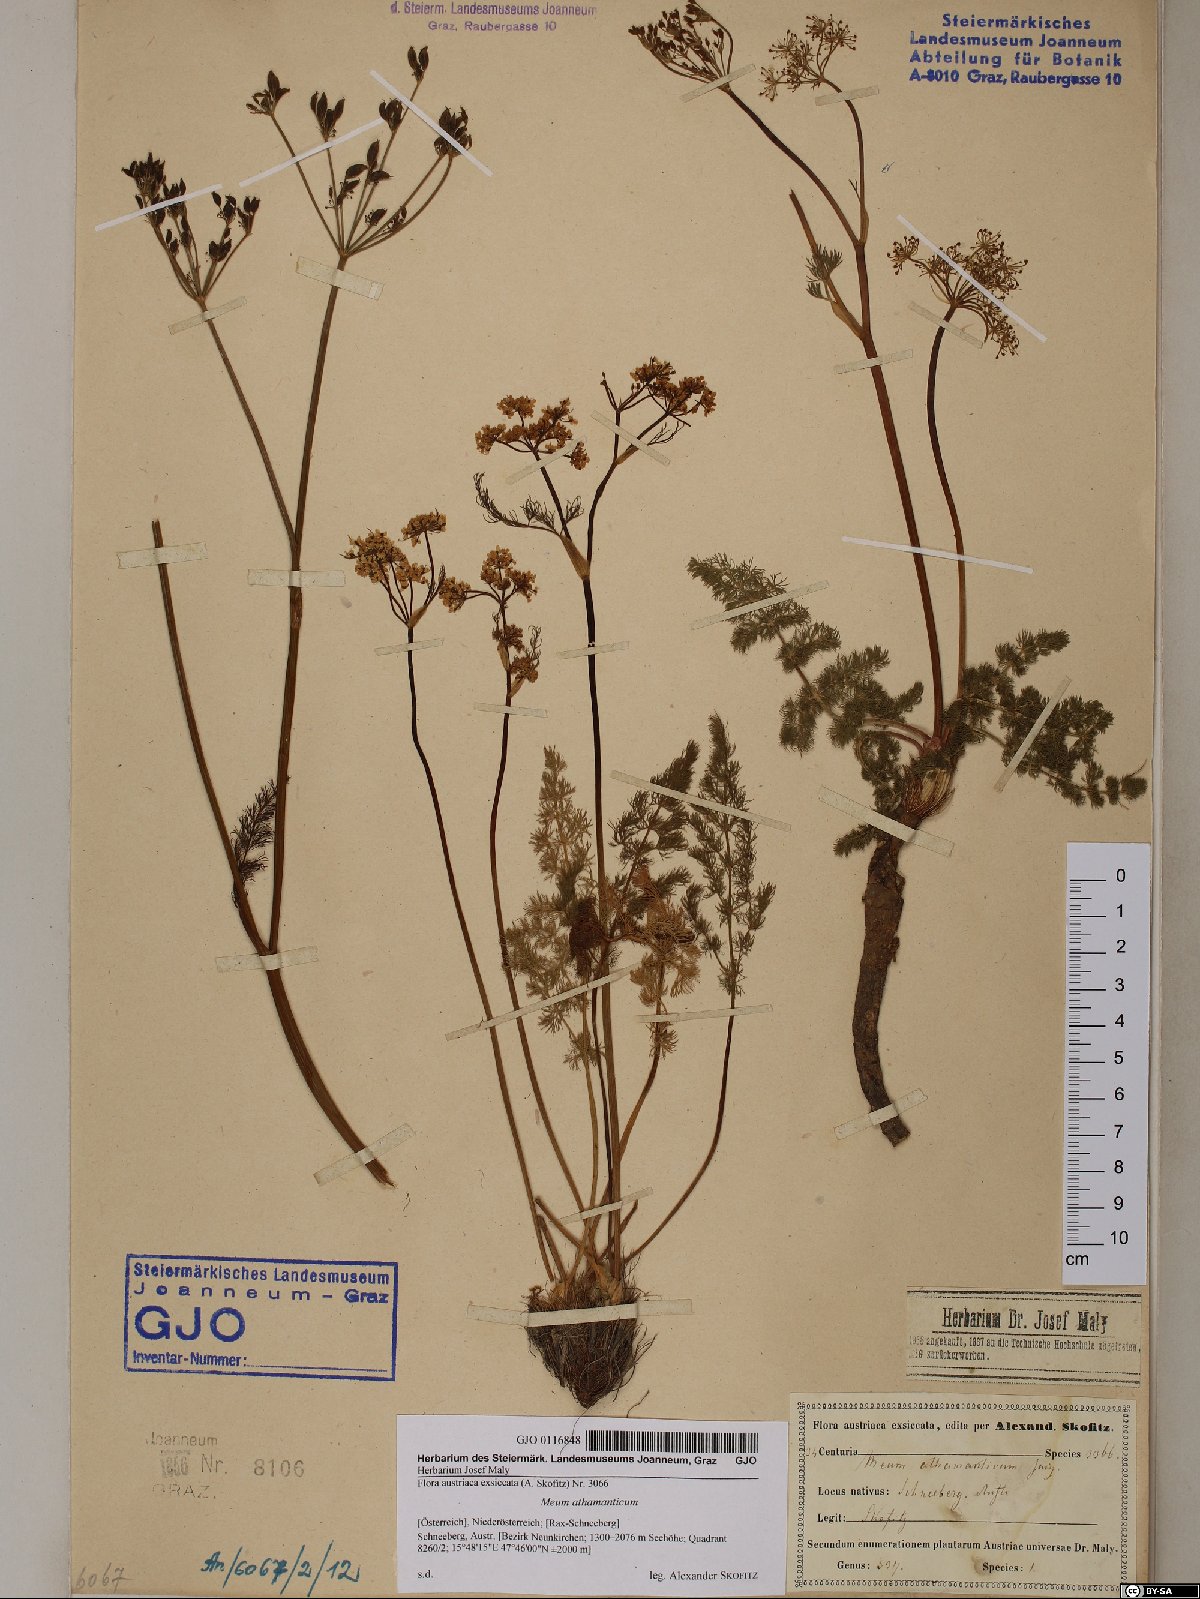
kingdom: Plantae
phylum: Tracheophyta
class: Magnoliopsida
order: Apiales
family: Apiaceae
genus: Meum
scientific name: Meum athamanticum
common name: Spignel
